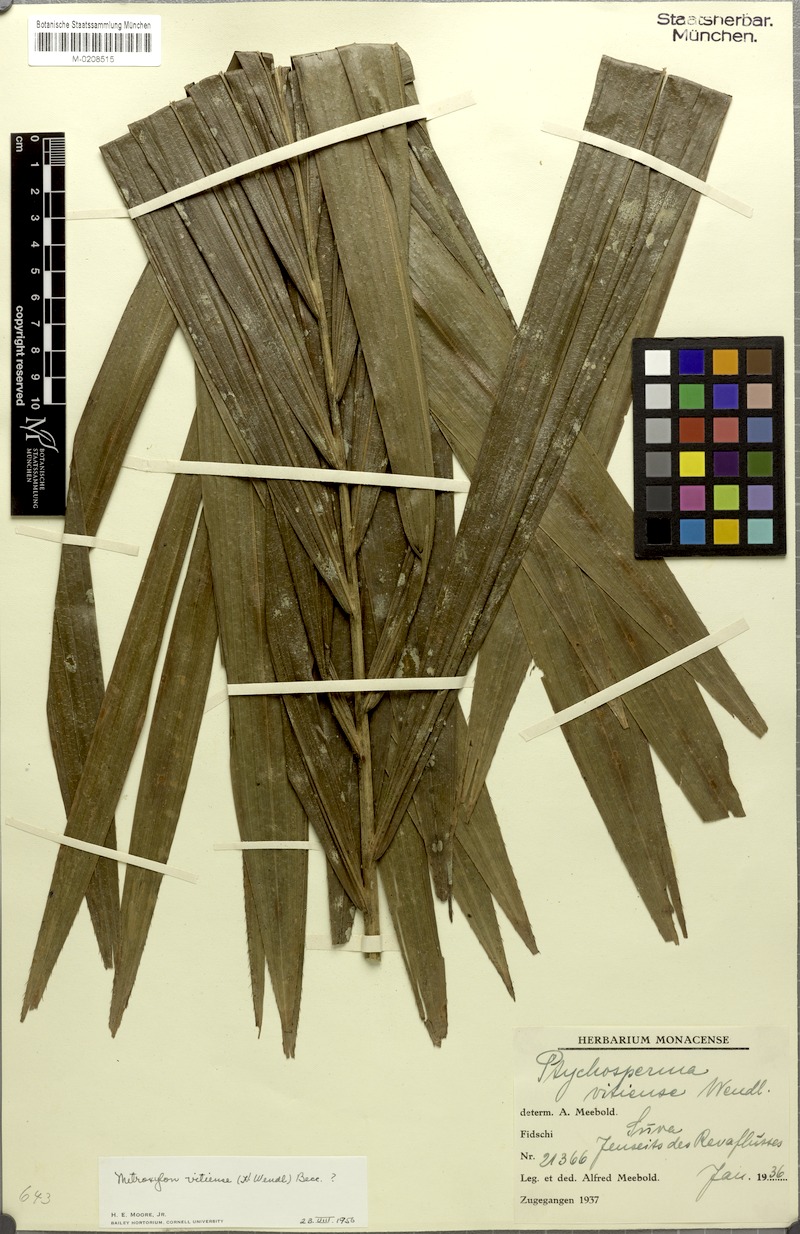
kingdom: Plantae
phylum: Tracheophyta
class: Liliopsida
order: Arecales
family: Arecaceae
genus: Metroxylon
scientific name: Metroxylon vitiense
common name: Fiji sago palm
